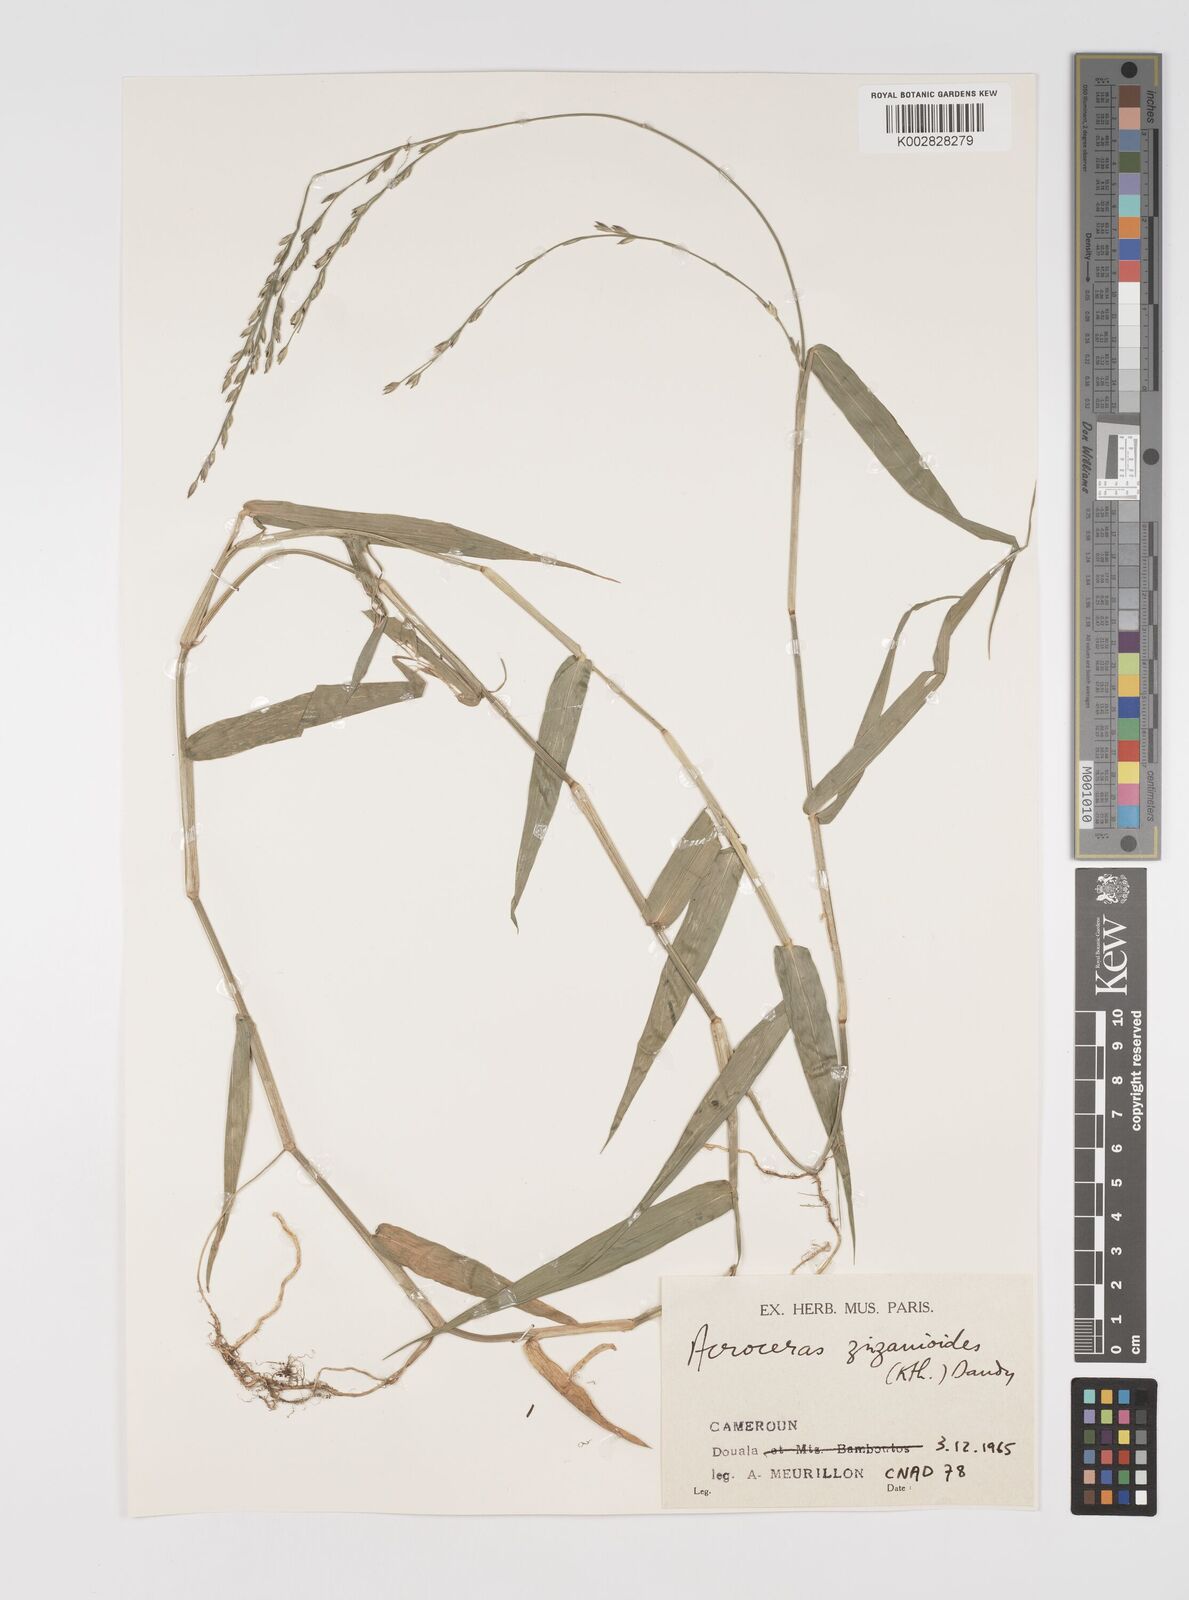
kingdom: Plantae
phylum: Tracheophyta
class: Liliopsida
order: Poales
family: Poaceae
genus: Acroceras
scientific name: Acroceras zizanioides
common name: Oat grass
